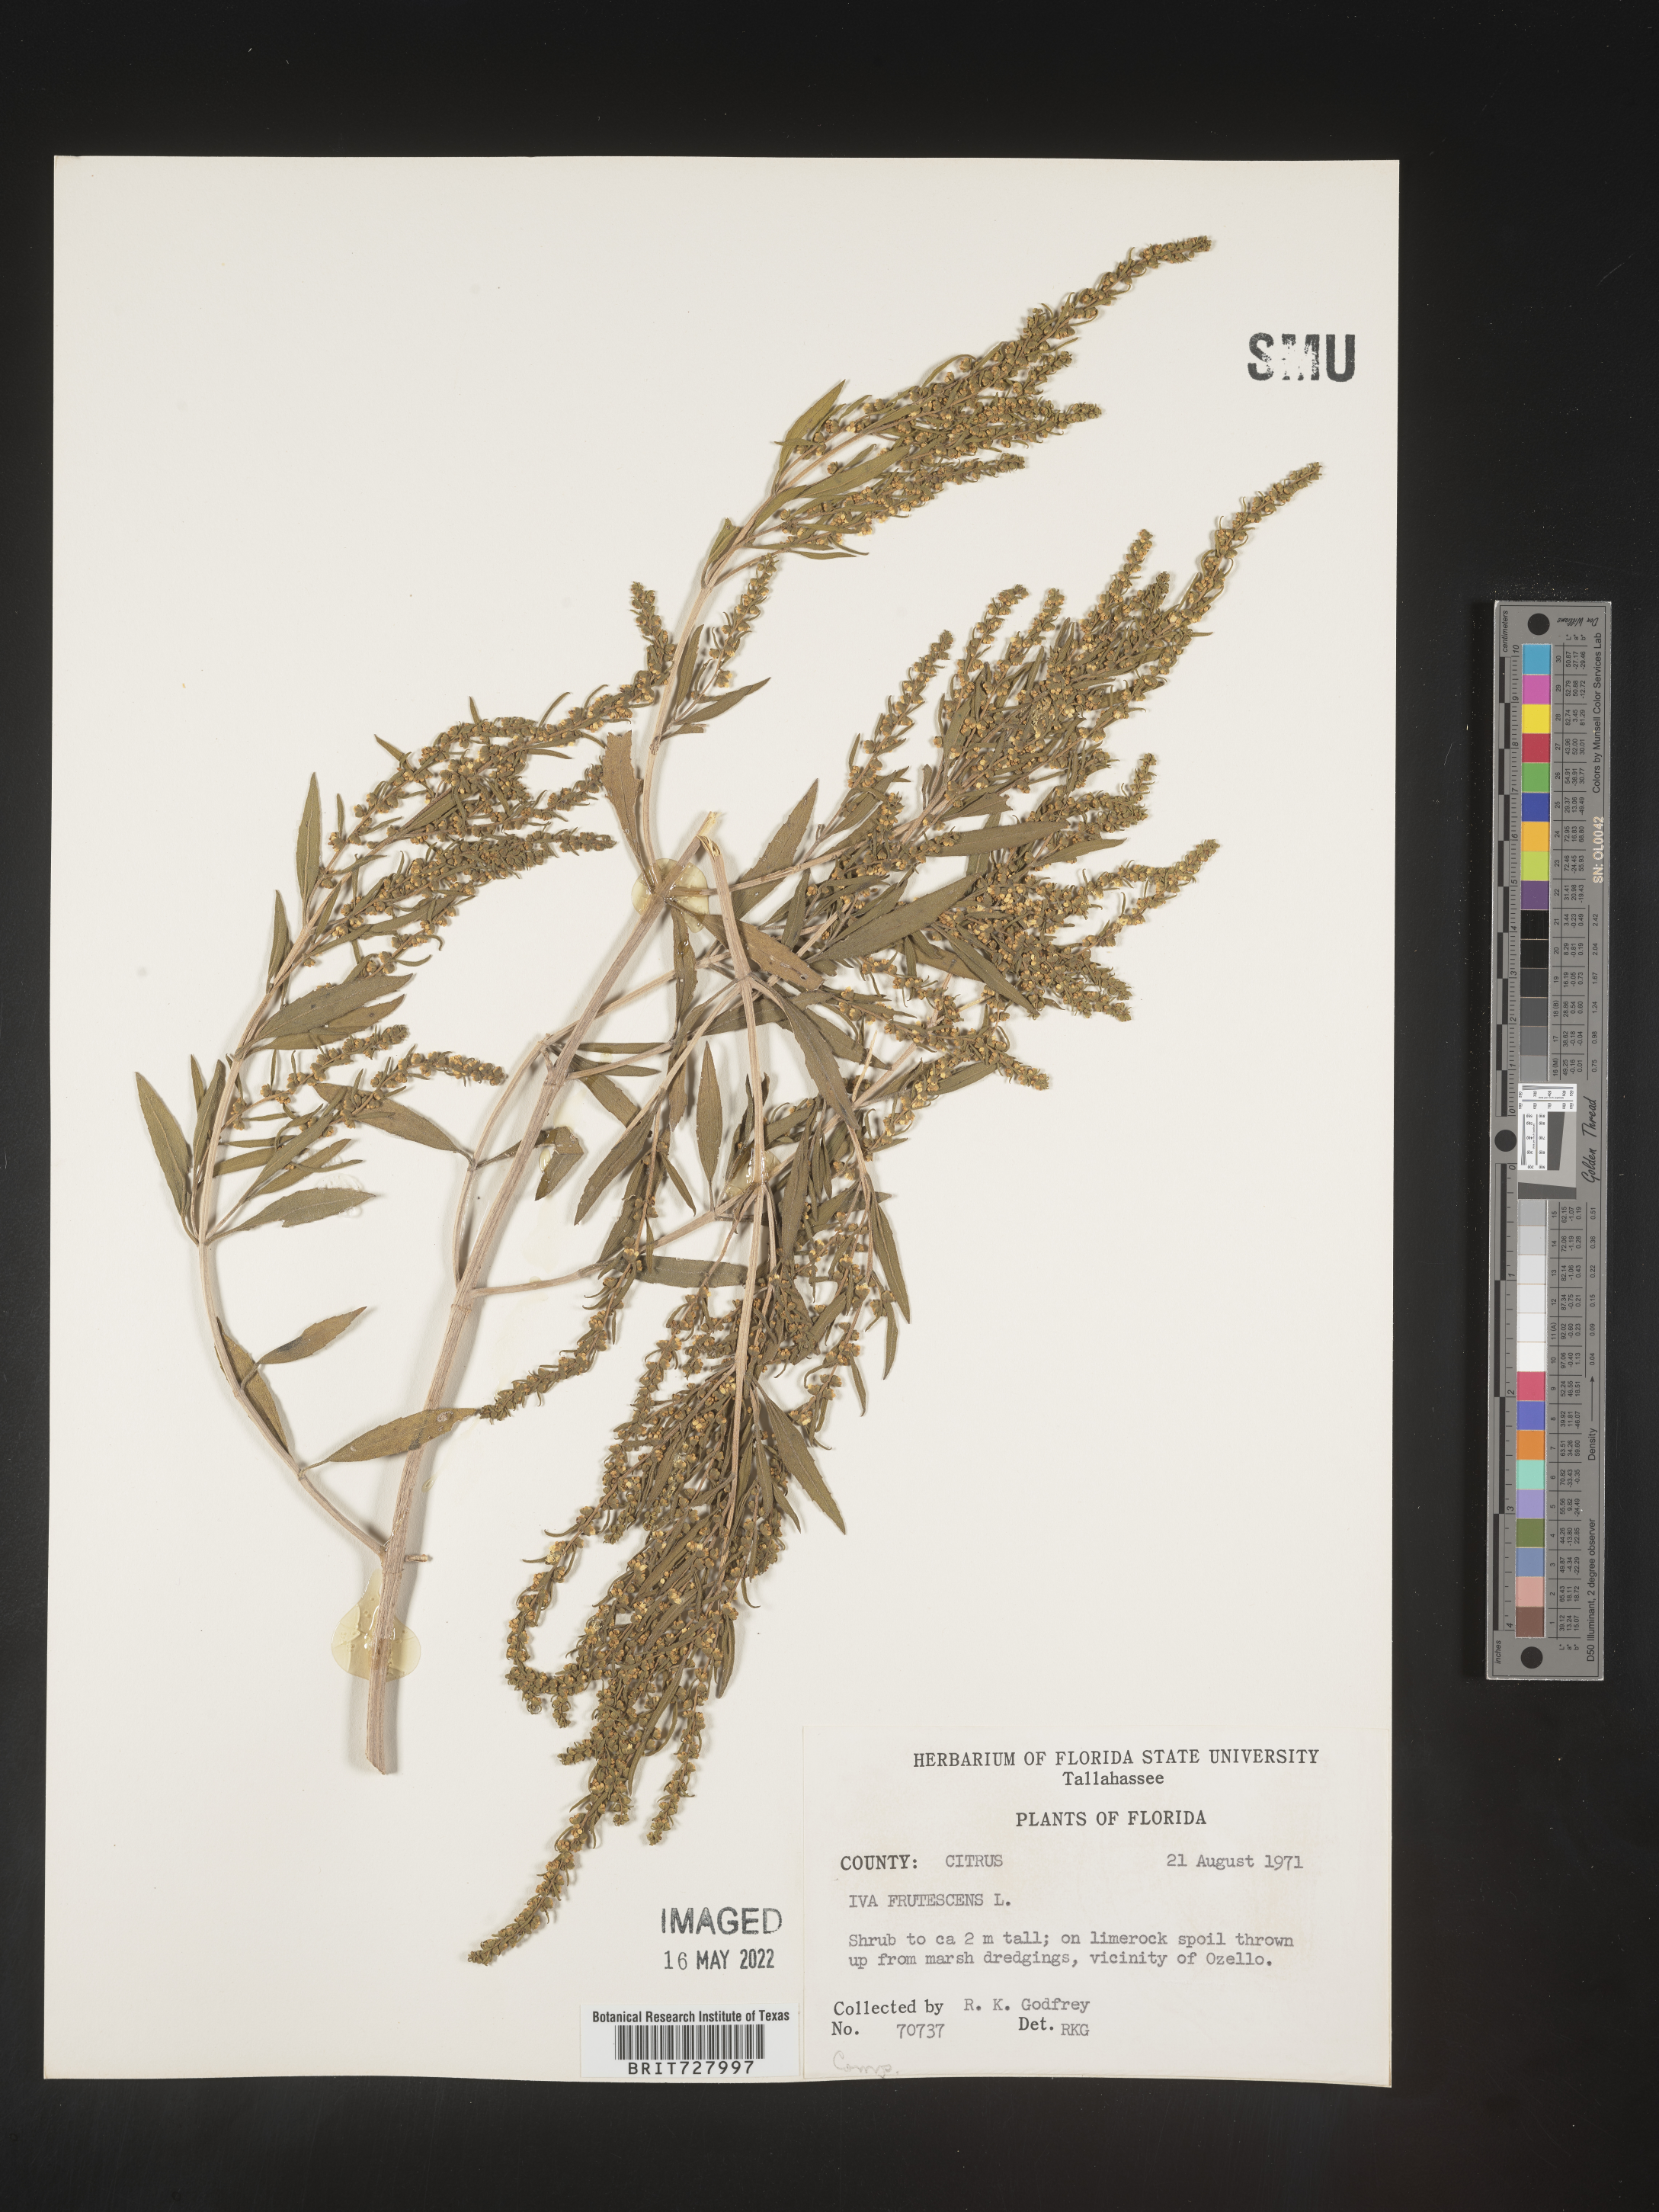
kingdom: Plantae
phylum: Tracheophyta
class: Magnoliopsida
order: Asterales
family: Asteraceae
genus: Iva
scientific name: Iva frutescens
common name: Big-leaved marsh-elder
